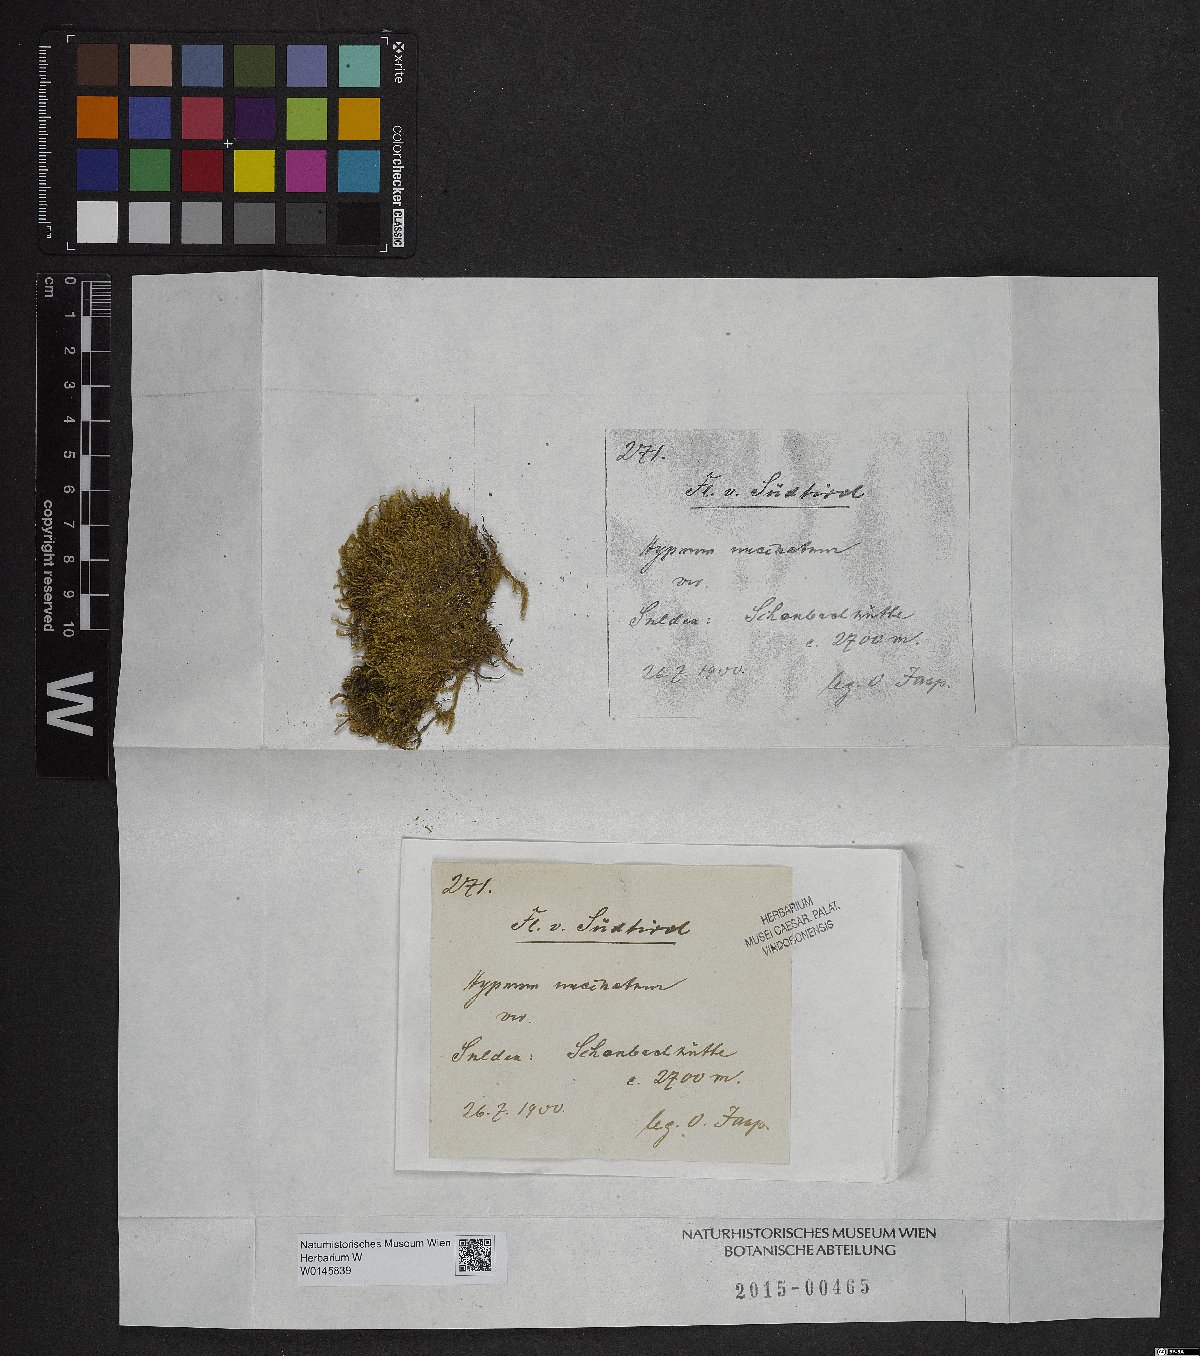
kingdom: Plantae
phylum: Bryophyta
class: Bryopsida
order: Hypnales
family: Scorpidiaceae
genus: Sanionia
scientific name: Sanionia uncinata
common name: Sickle moss
